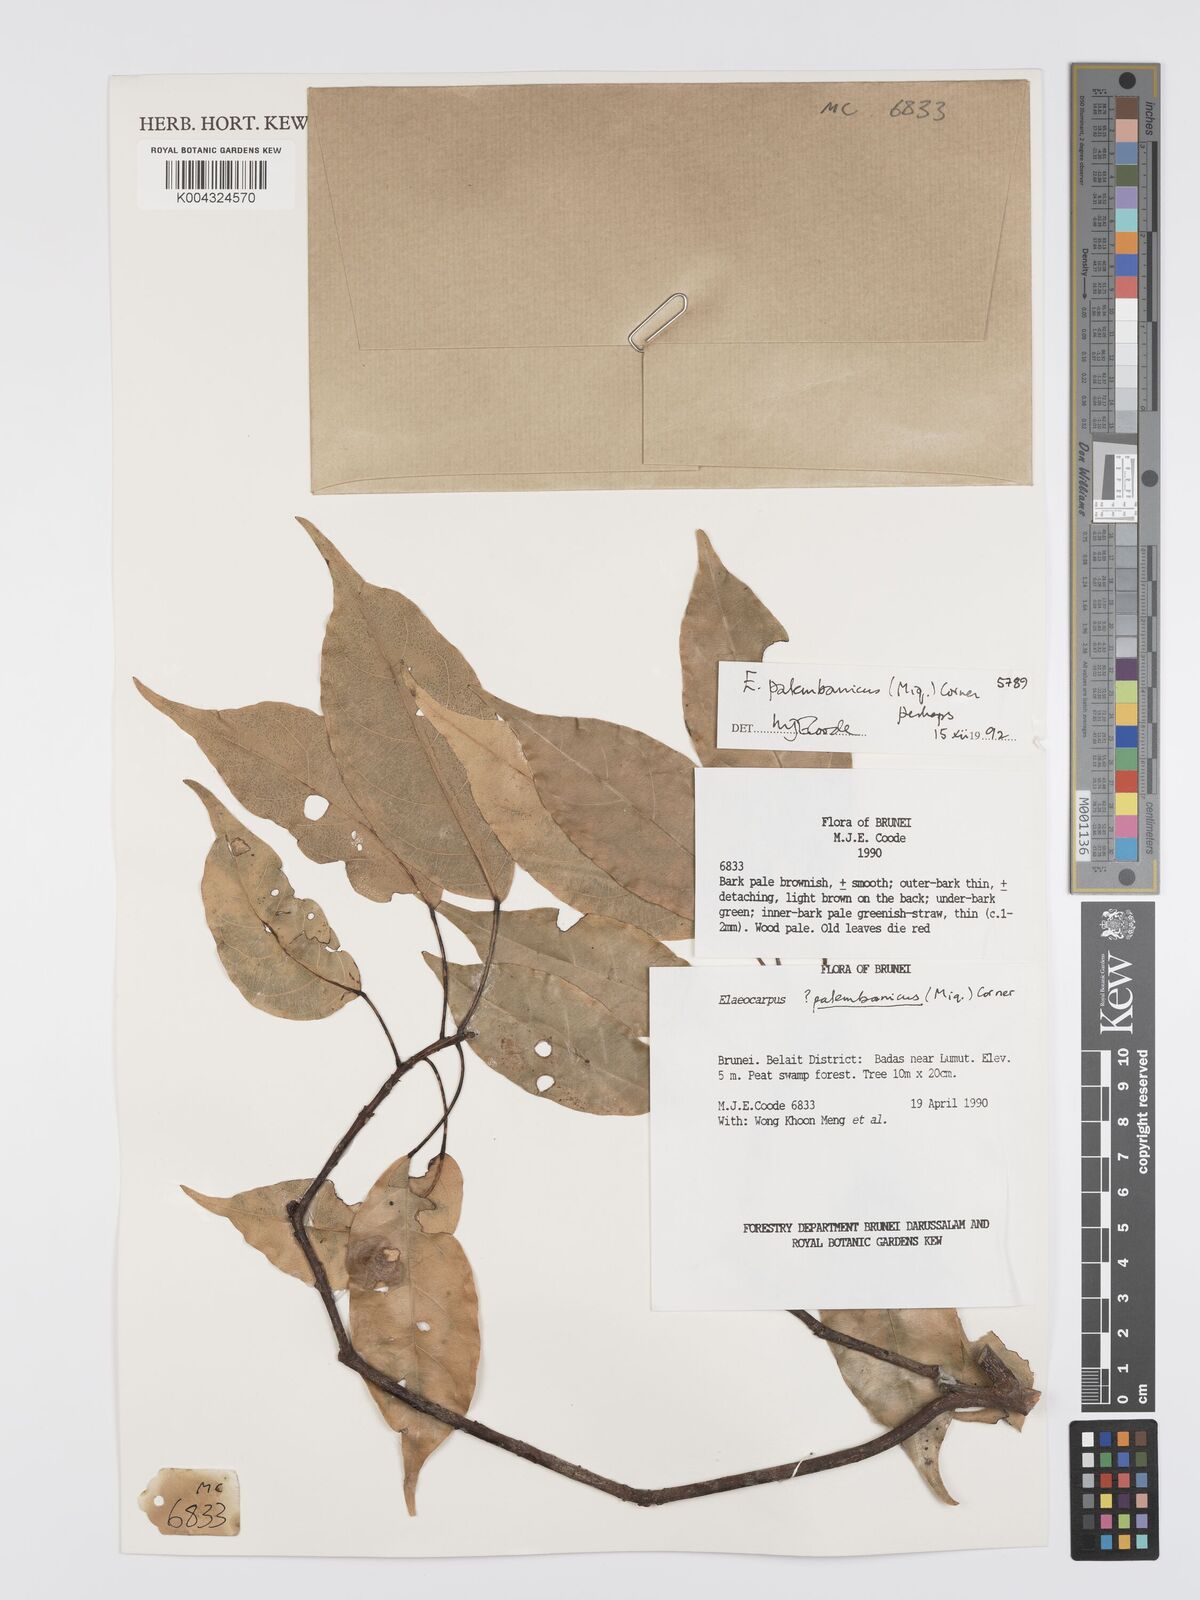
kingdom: Plantae
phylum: Tracheophyta
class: Magnoliopsida
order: Oxalidales
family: Elaeocarpaceae
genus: Elaeocarpus
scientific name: Elaeocarpus palembanicus
